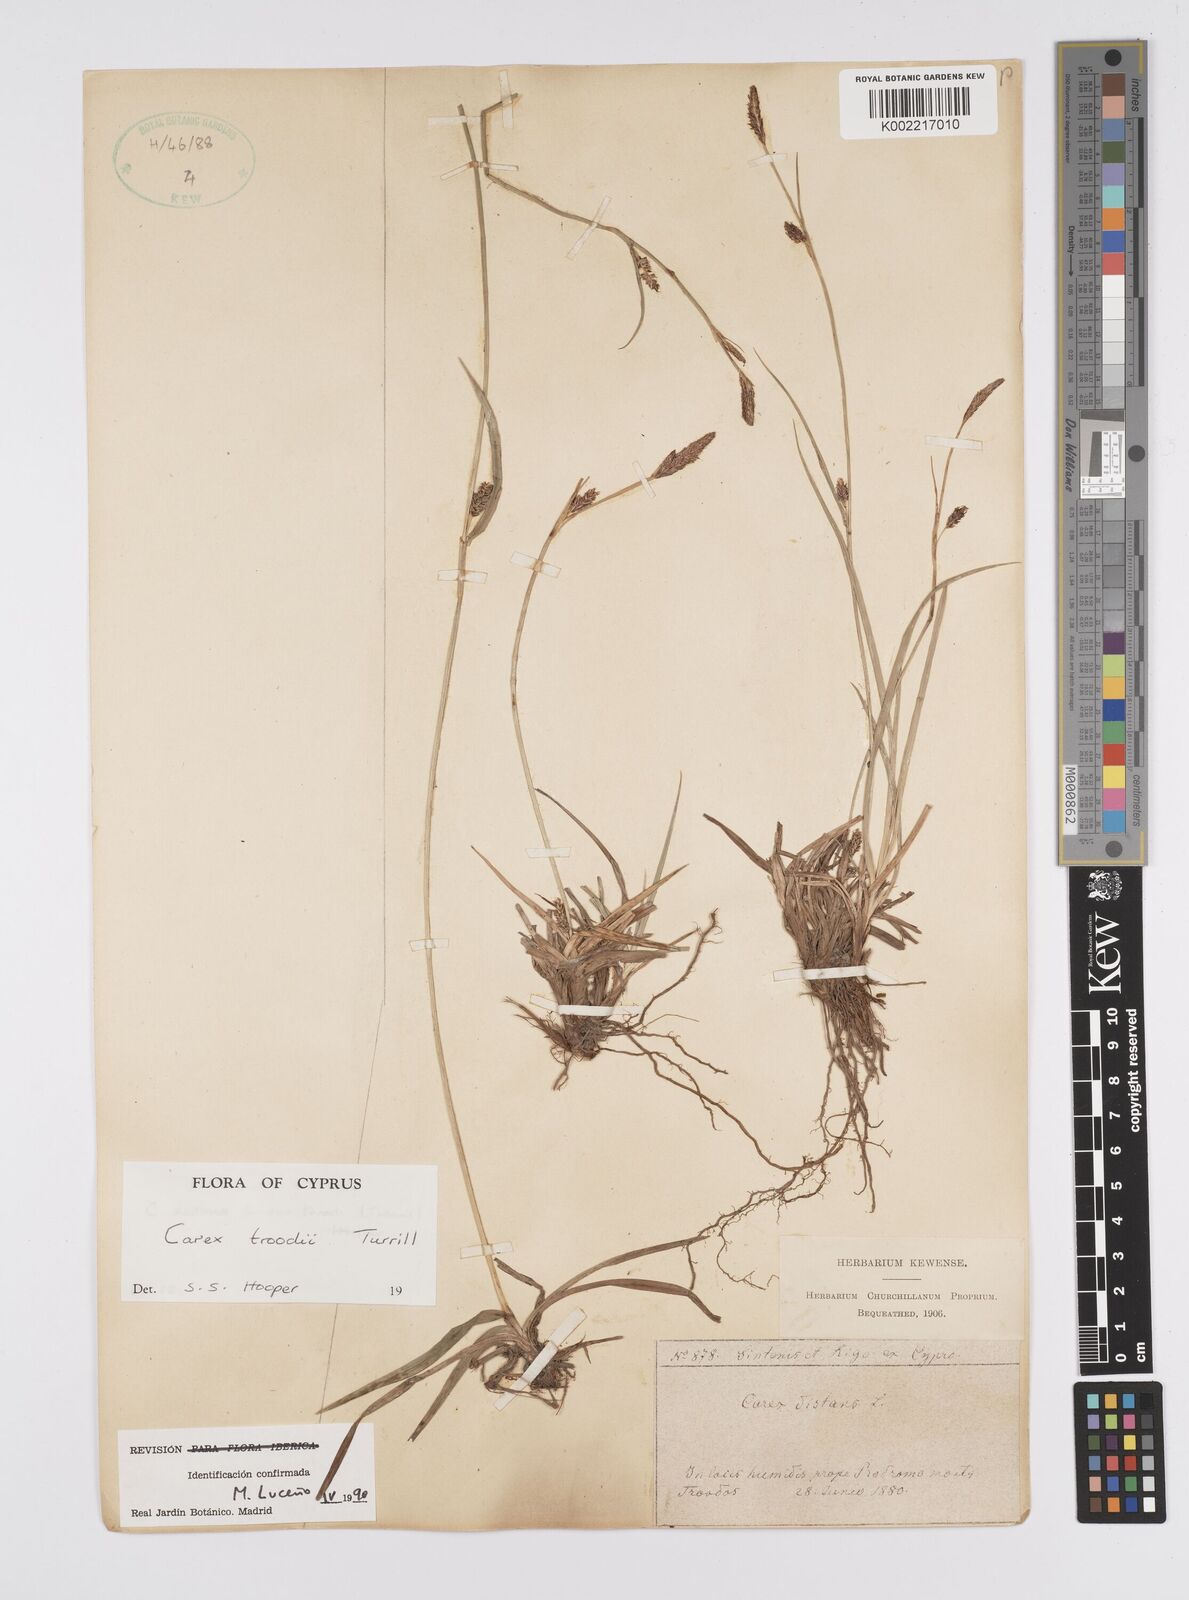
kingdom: Plantae
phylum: Tracheophyta
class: Liliopsida
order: Poales
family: Cyperaceae
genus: Carex
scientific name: Carex troodi
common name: Troodos mount sedge
